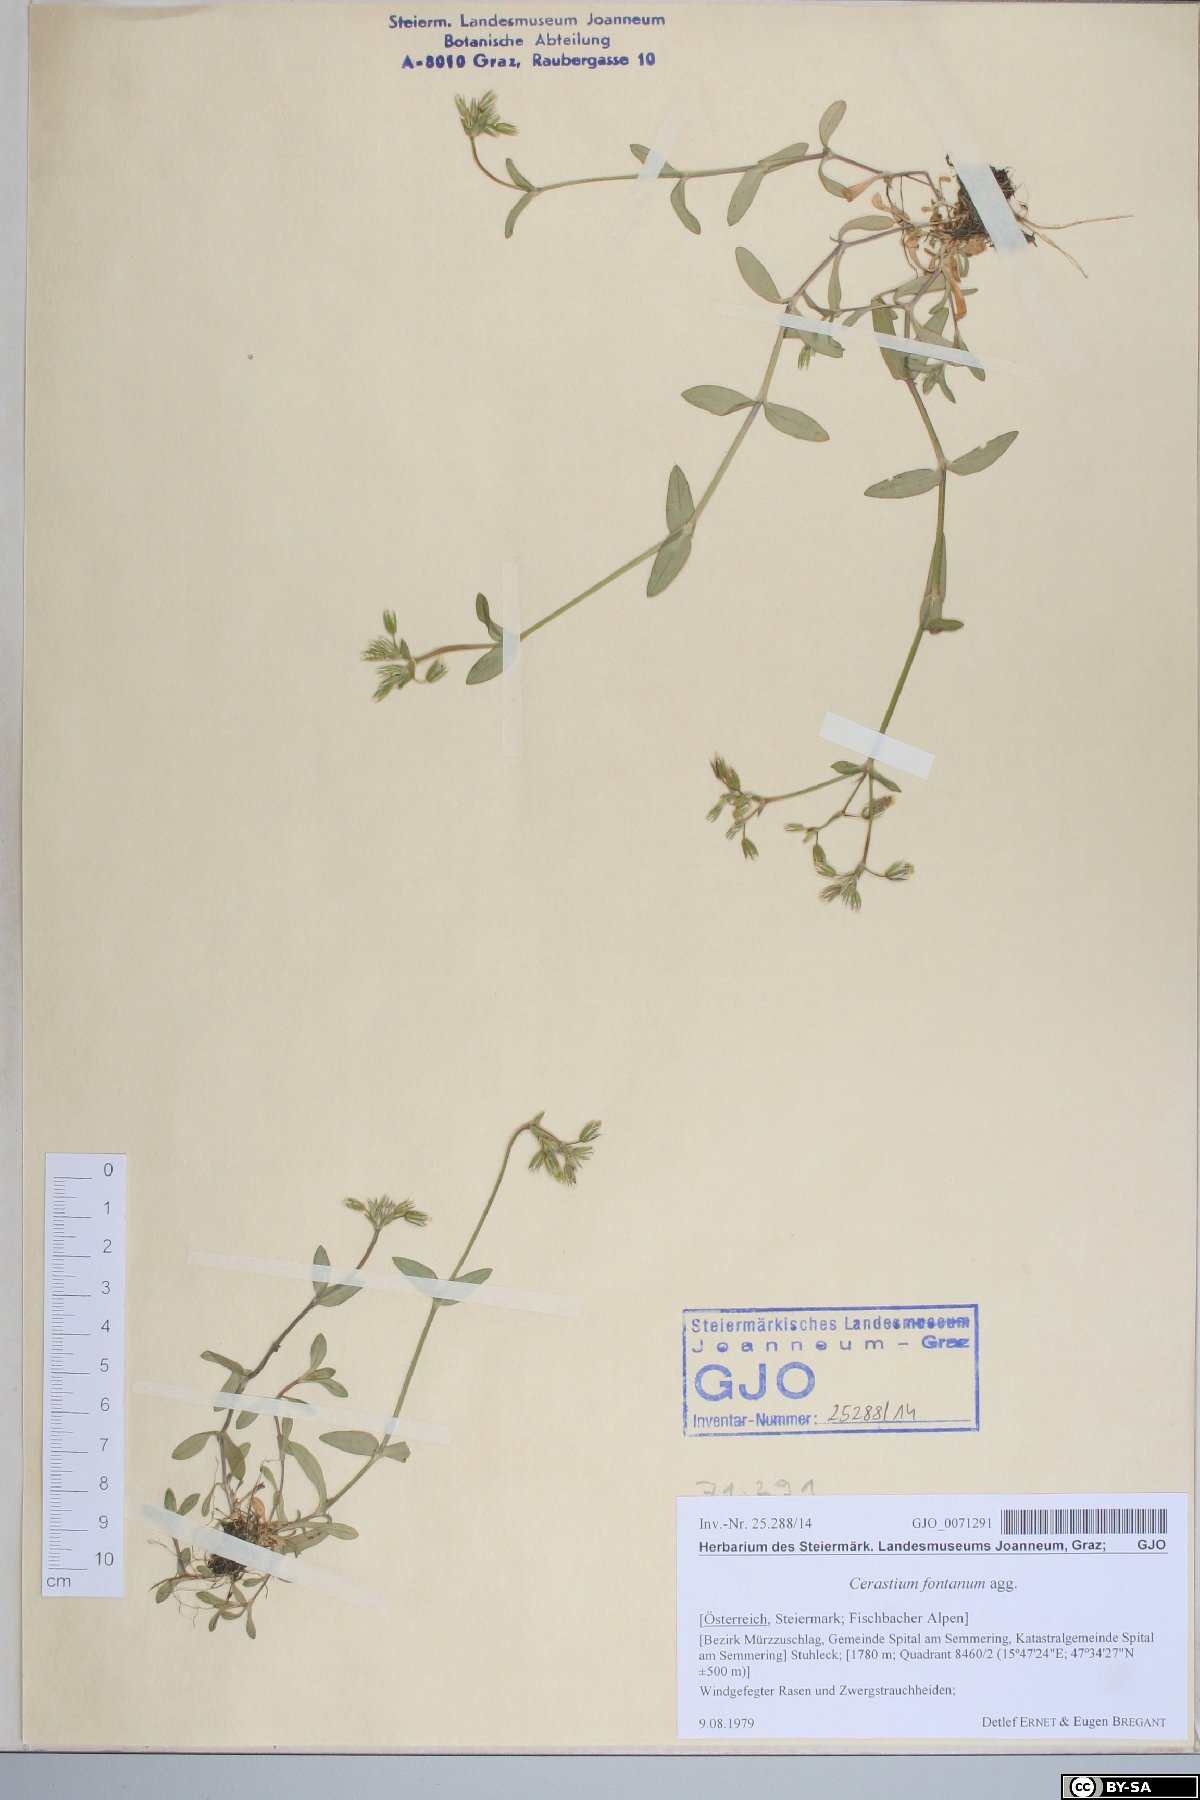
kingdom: Plantae
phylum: Tracheophyta
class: Magnoliopsida
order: Caryophyllales
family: Caryophyllaceae
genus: Cerastium
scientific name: Cerastium fontanum
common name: Common mouse-ear
